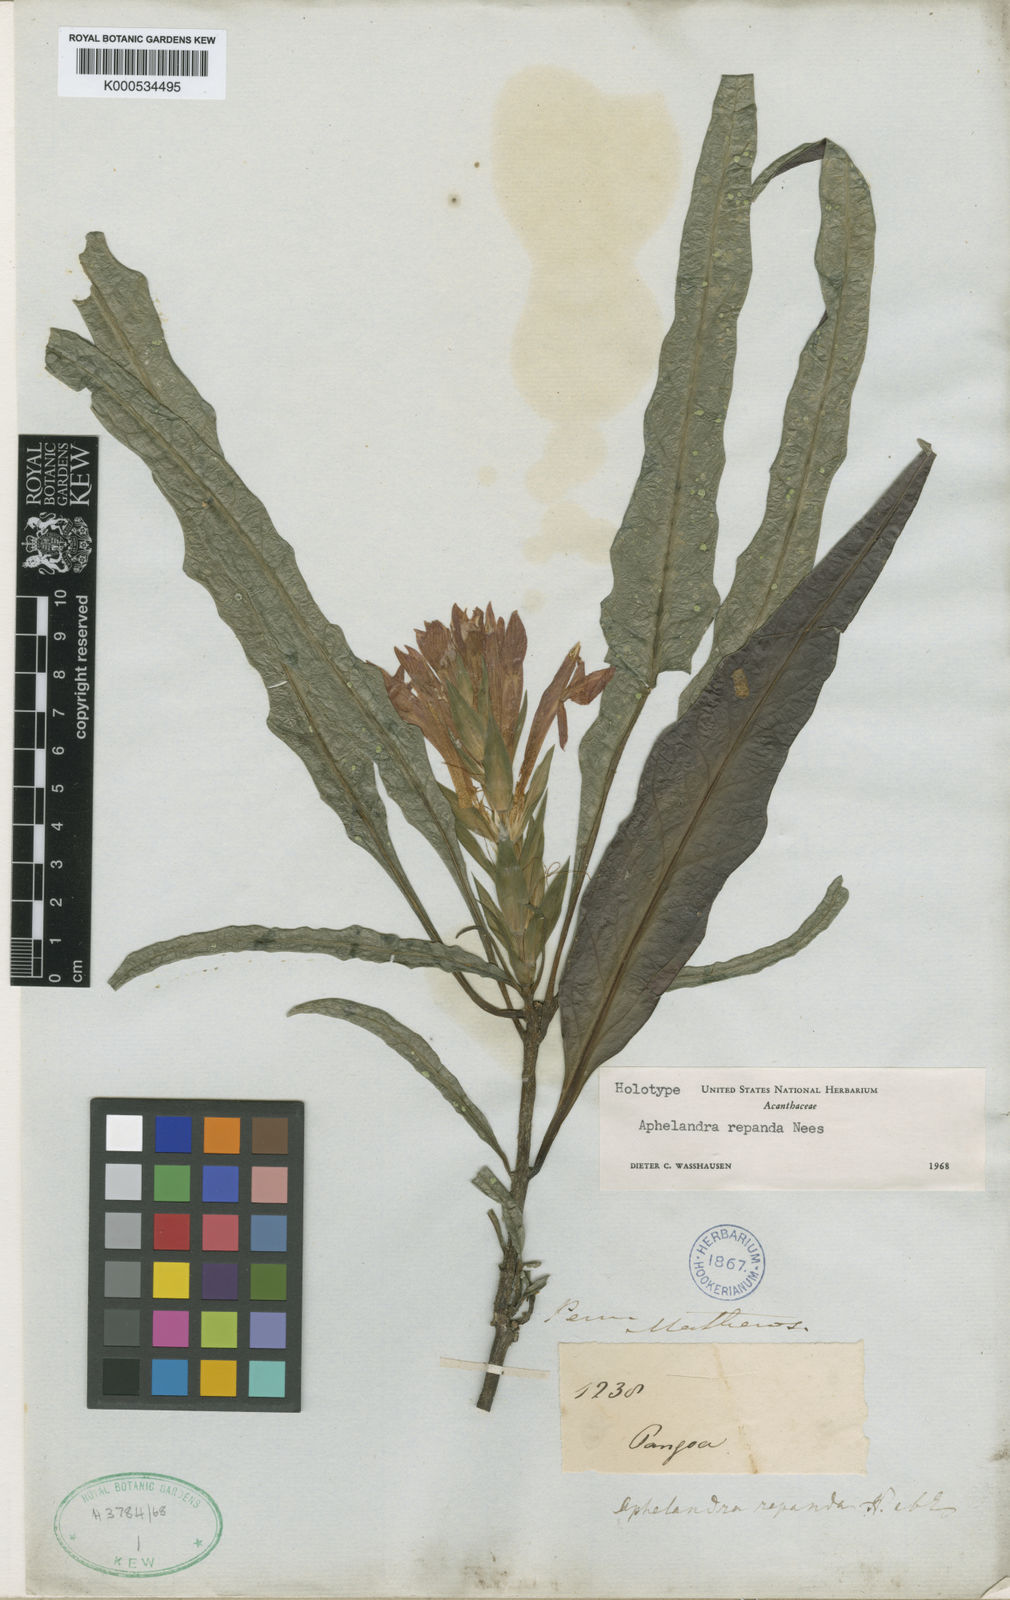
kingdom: Plantae
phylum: Tracheophyta
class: Magnoliopsida
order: Lamiales
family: Acanthaceae
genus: Aphelandra
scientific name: Aphelandra aurantiaca
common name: Fiery spike
